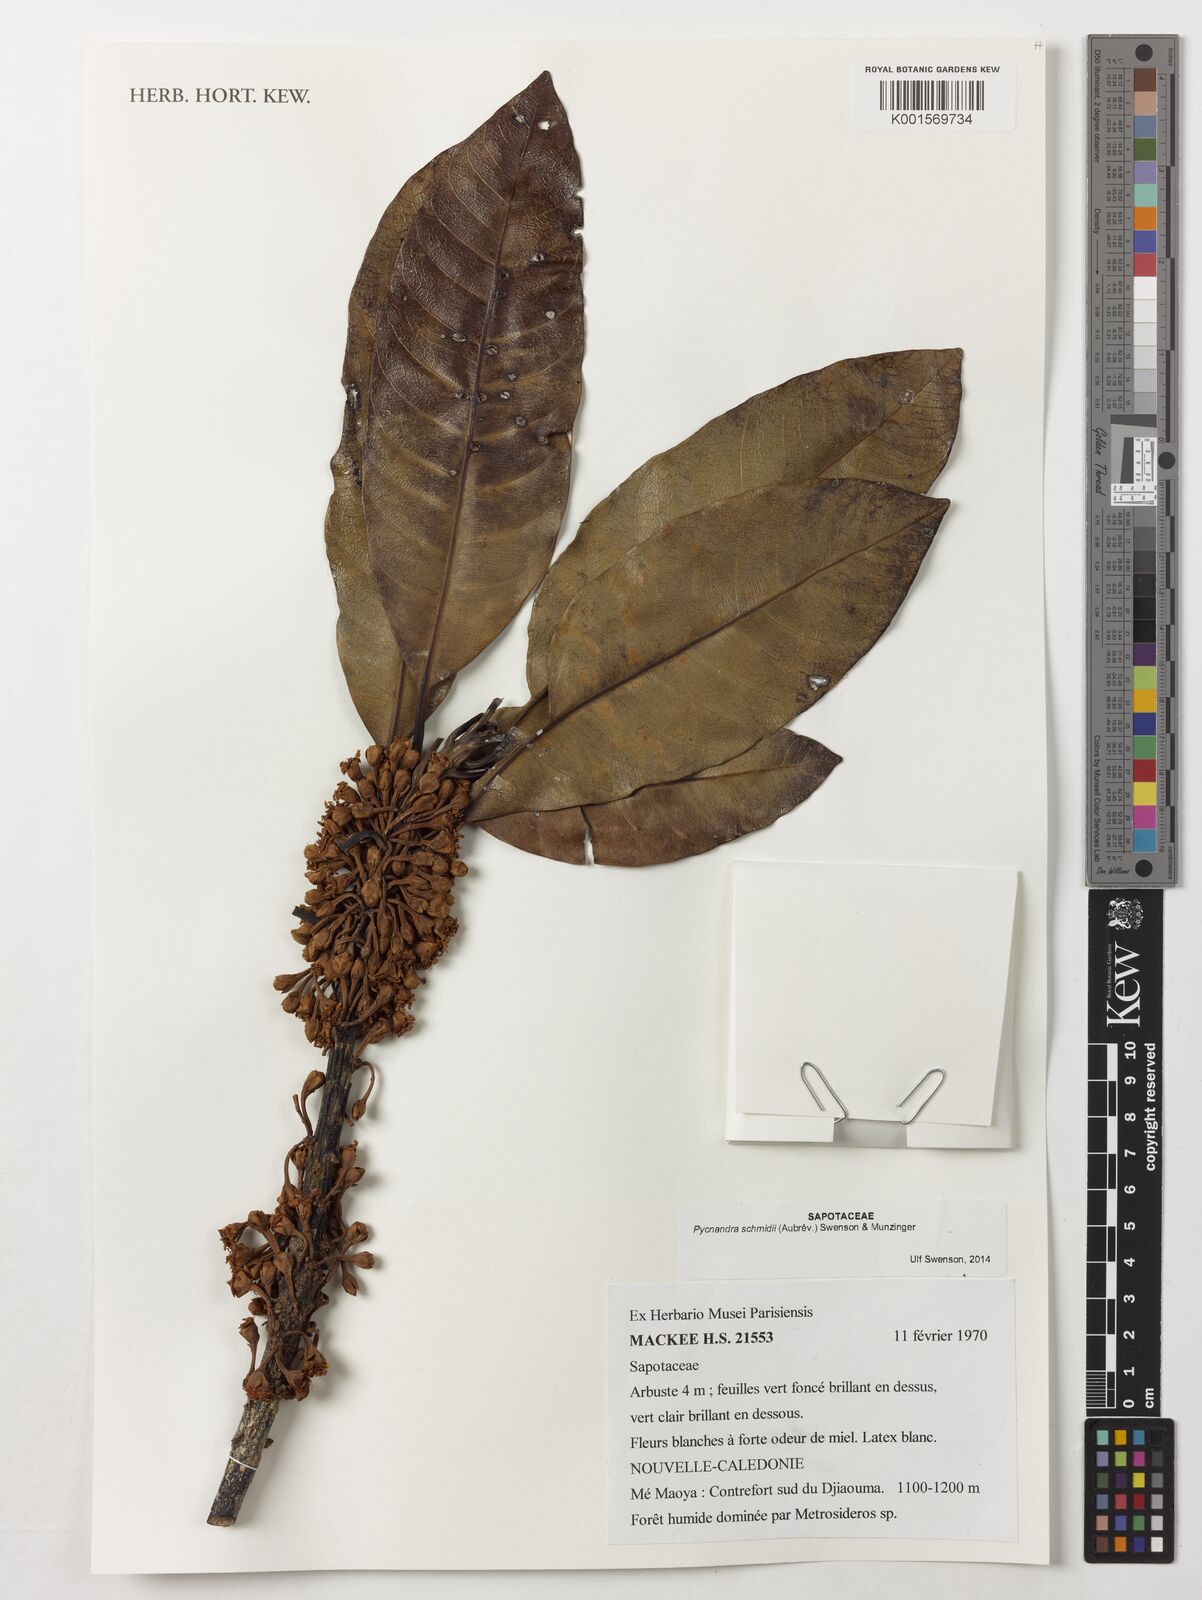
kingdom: Plantae
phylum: Tracheophyta
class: Magnoliopsida
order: Ericales
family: Sapotaceae
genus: Pycnandra
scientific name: Pycnandra schmidii
